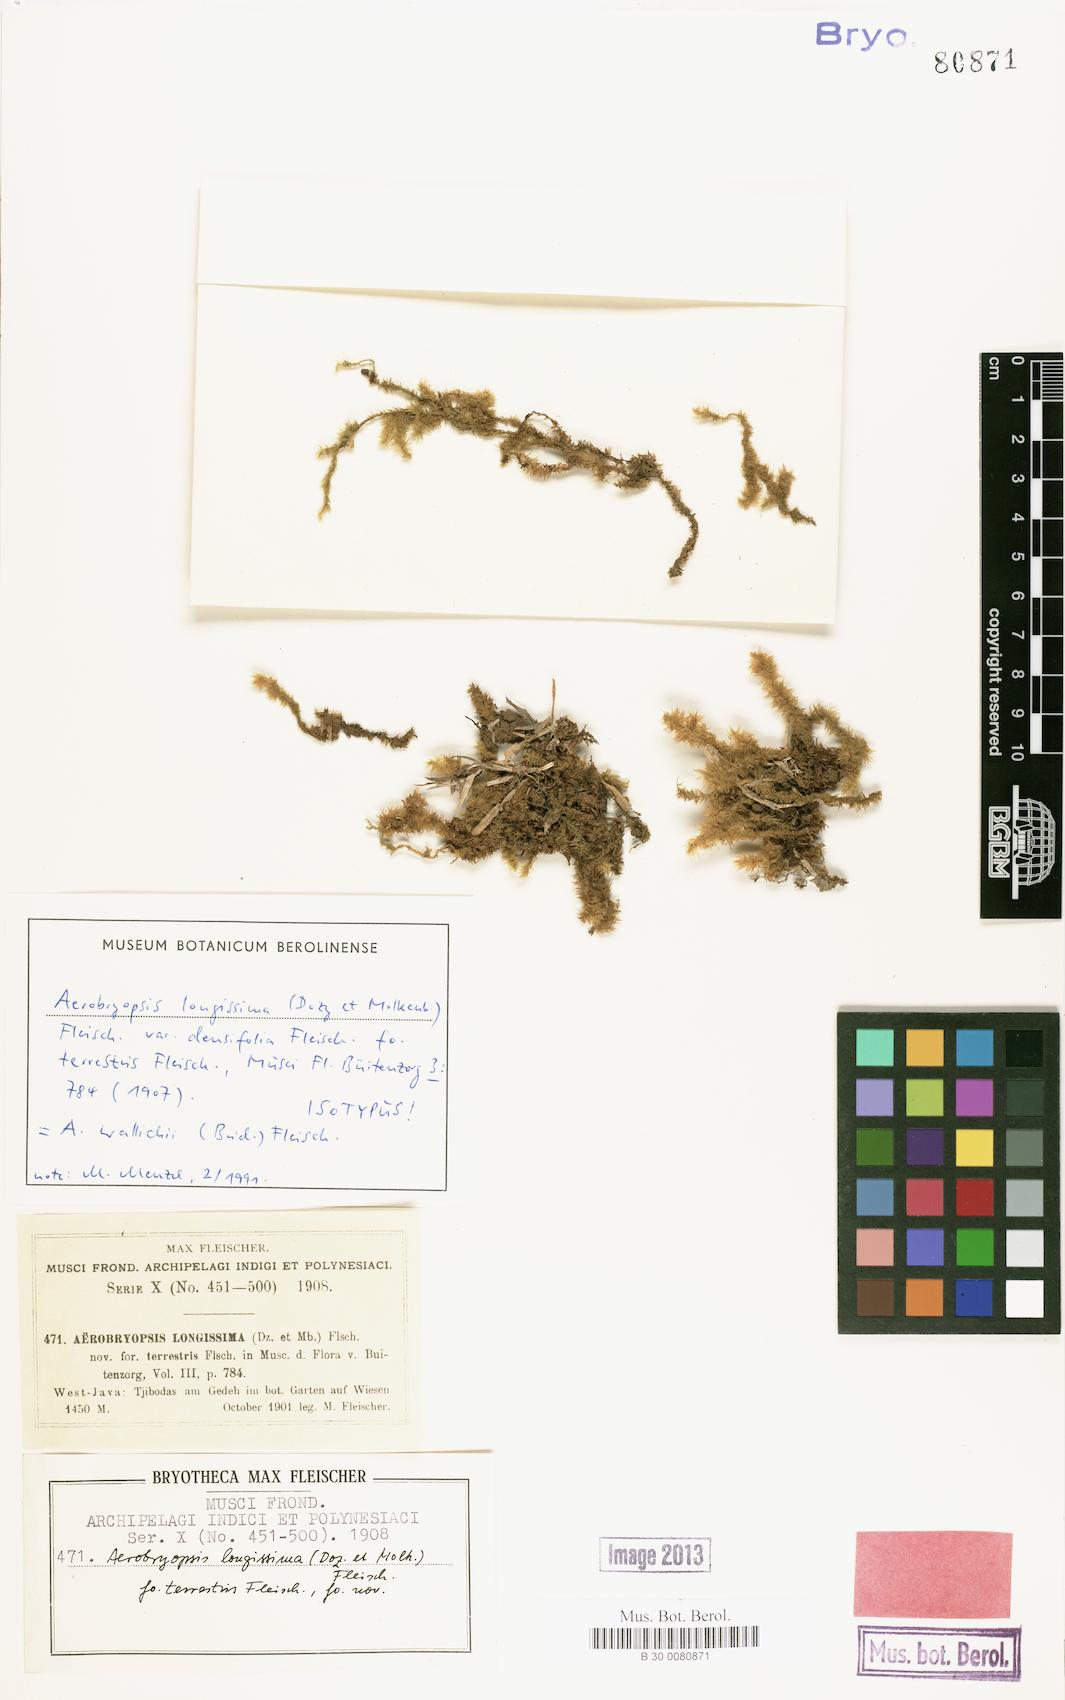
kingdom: Plantae
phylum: Bryophyta
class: Bryopsida
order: Hypnales
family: Meteoriaceae
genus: Pseudotrachypus
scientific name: Pseudotrachypus wallichii
